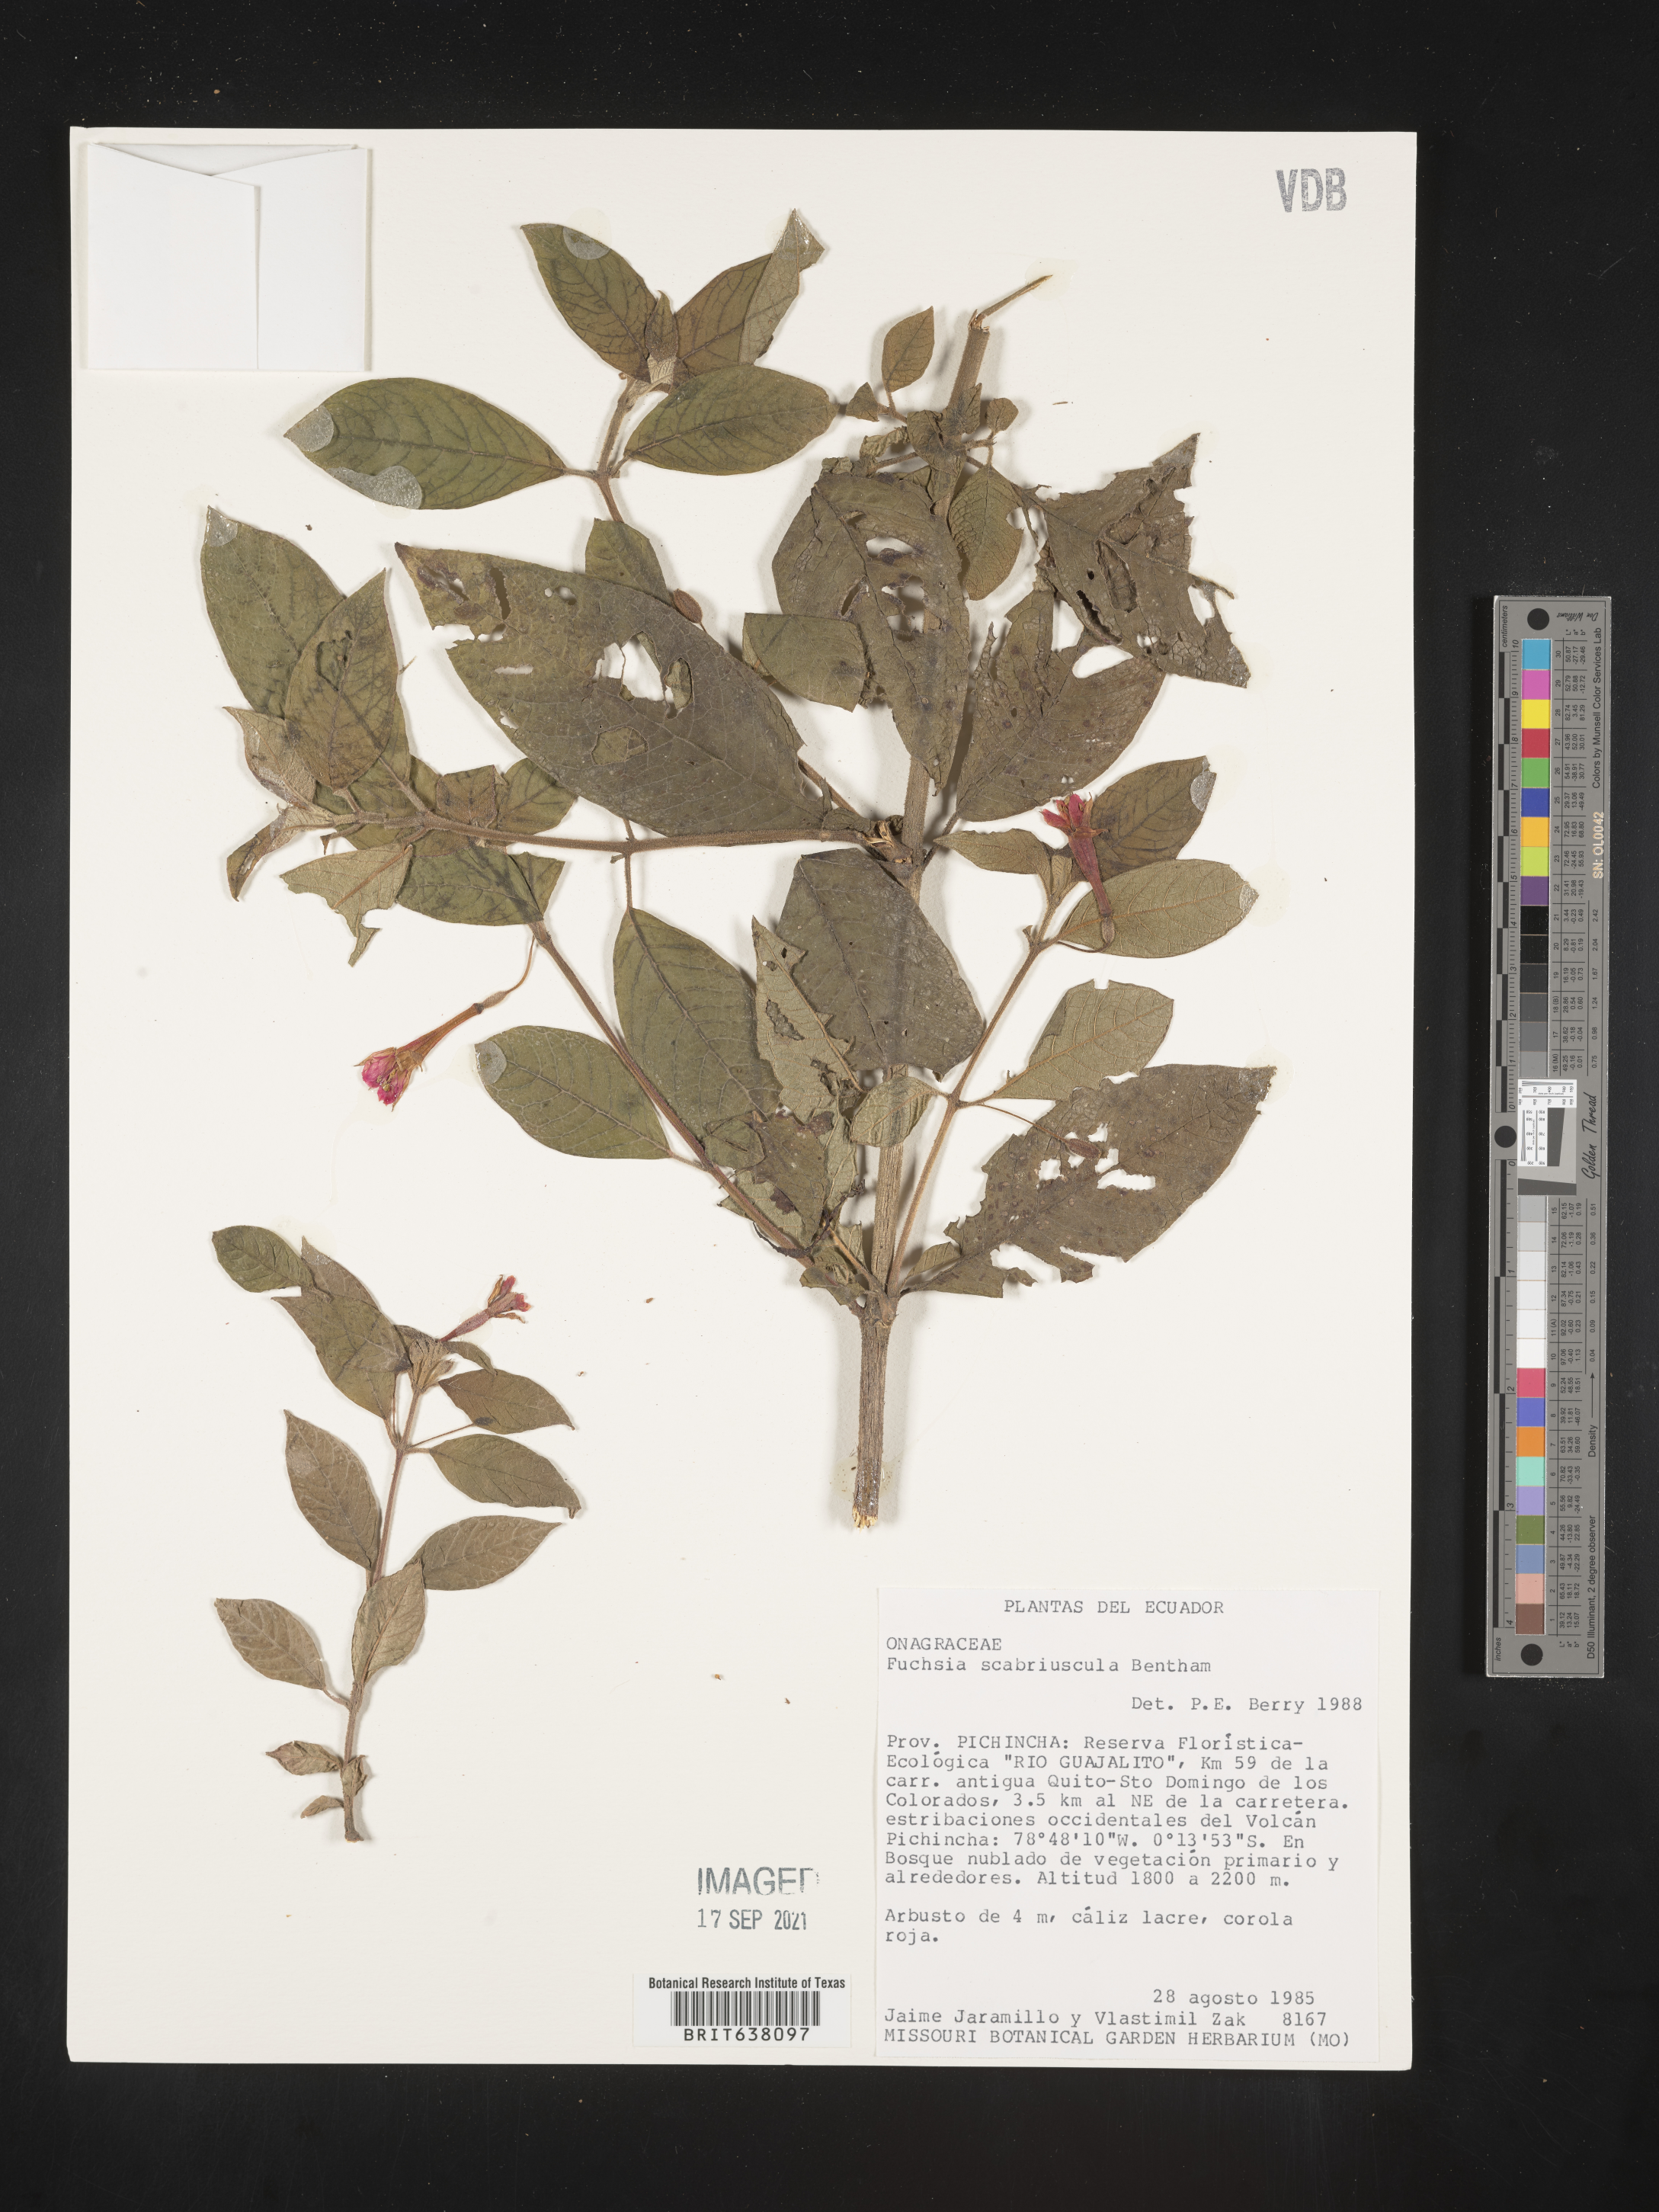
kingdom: Plantae
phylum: Tracheophyta
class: Magnoliopsida
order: Myrtales
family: Onagraceae
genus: Fuchsia
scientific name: Fuchsia
